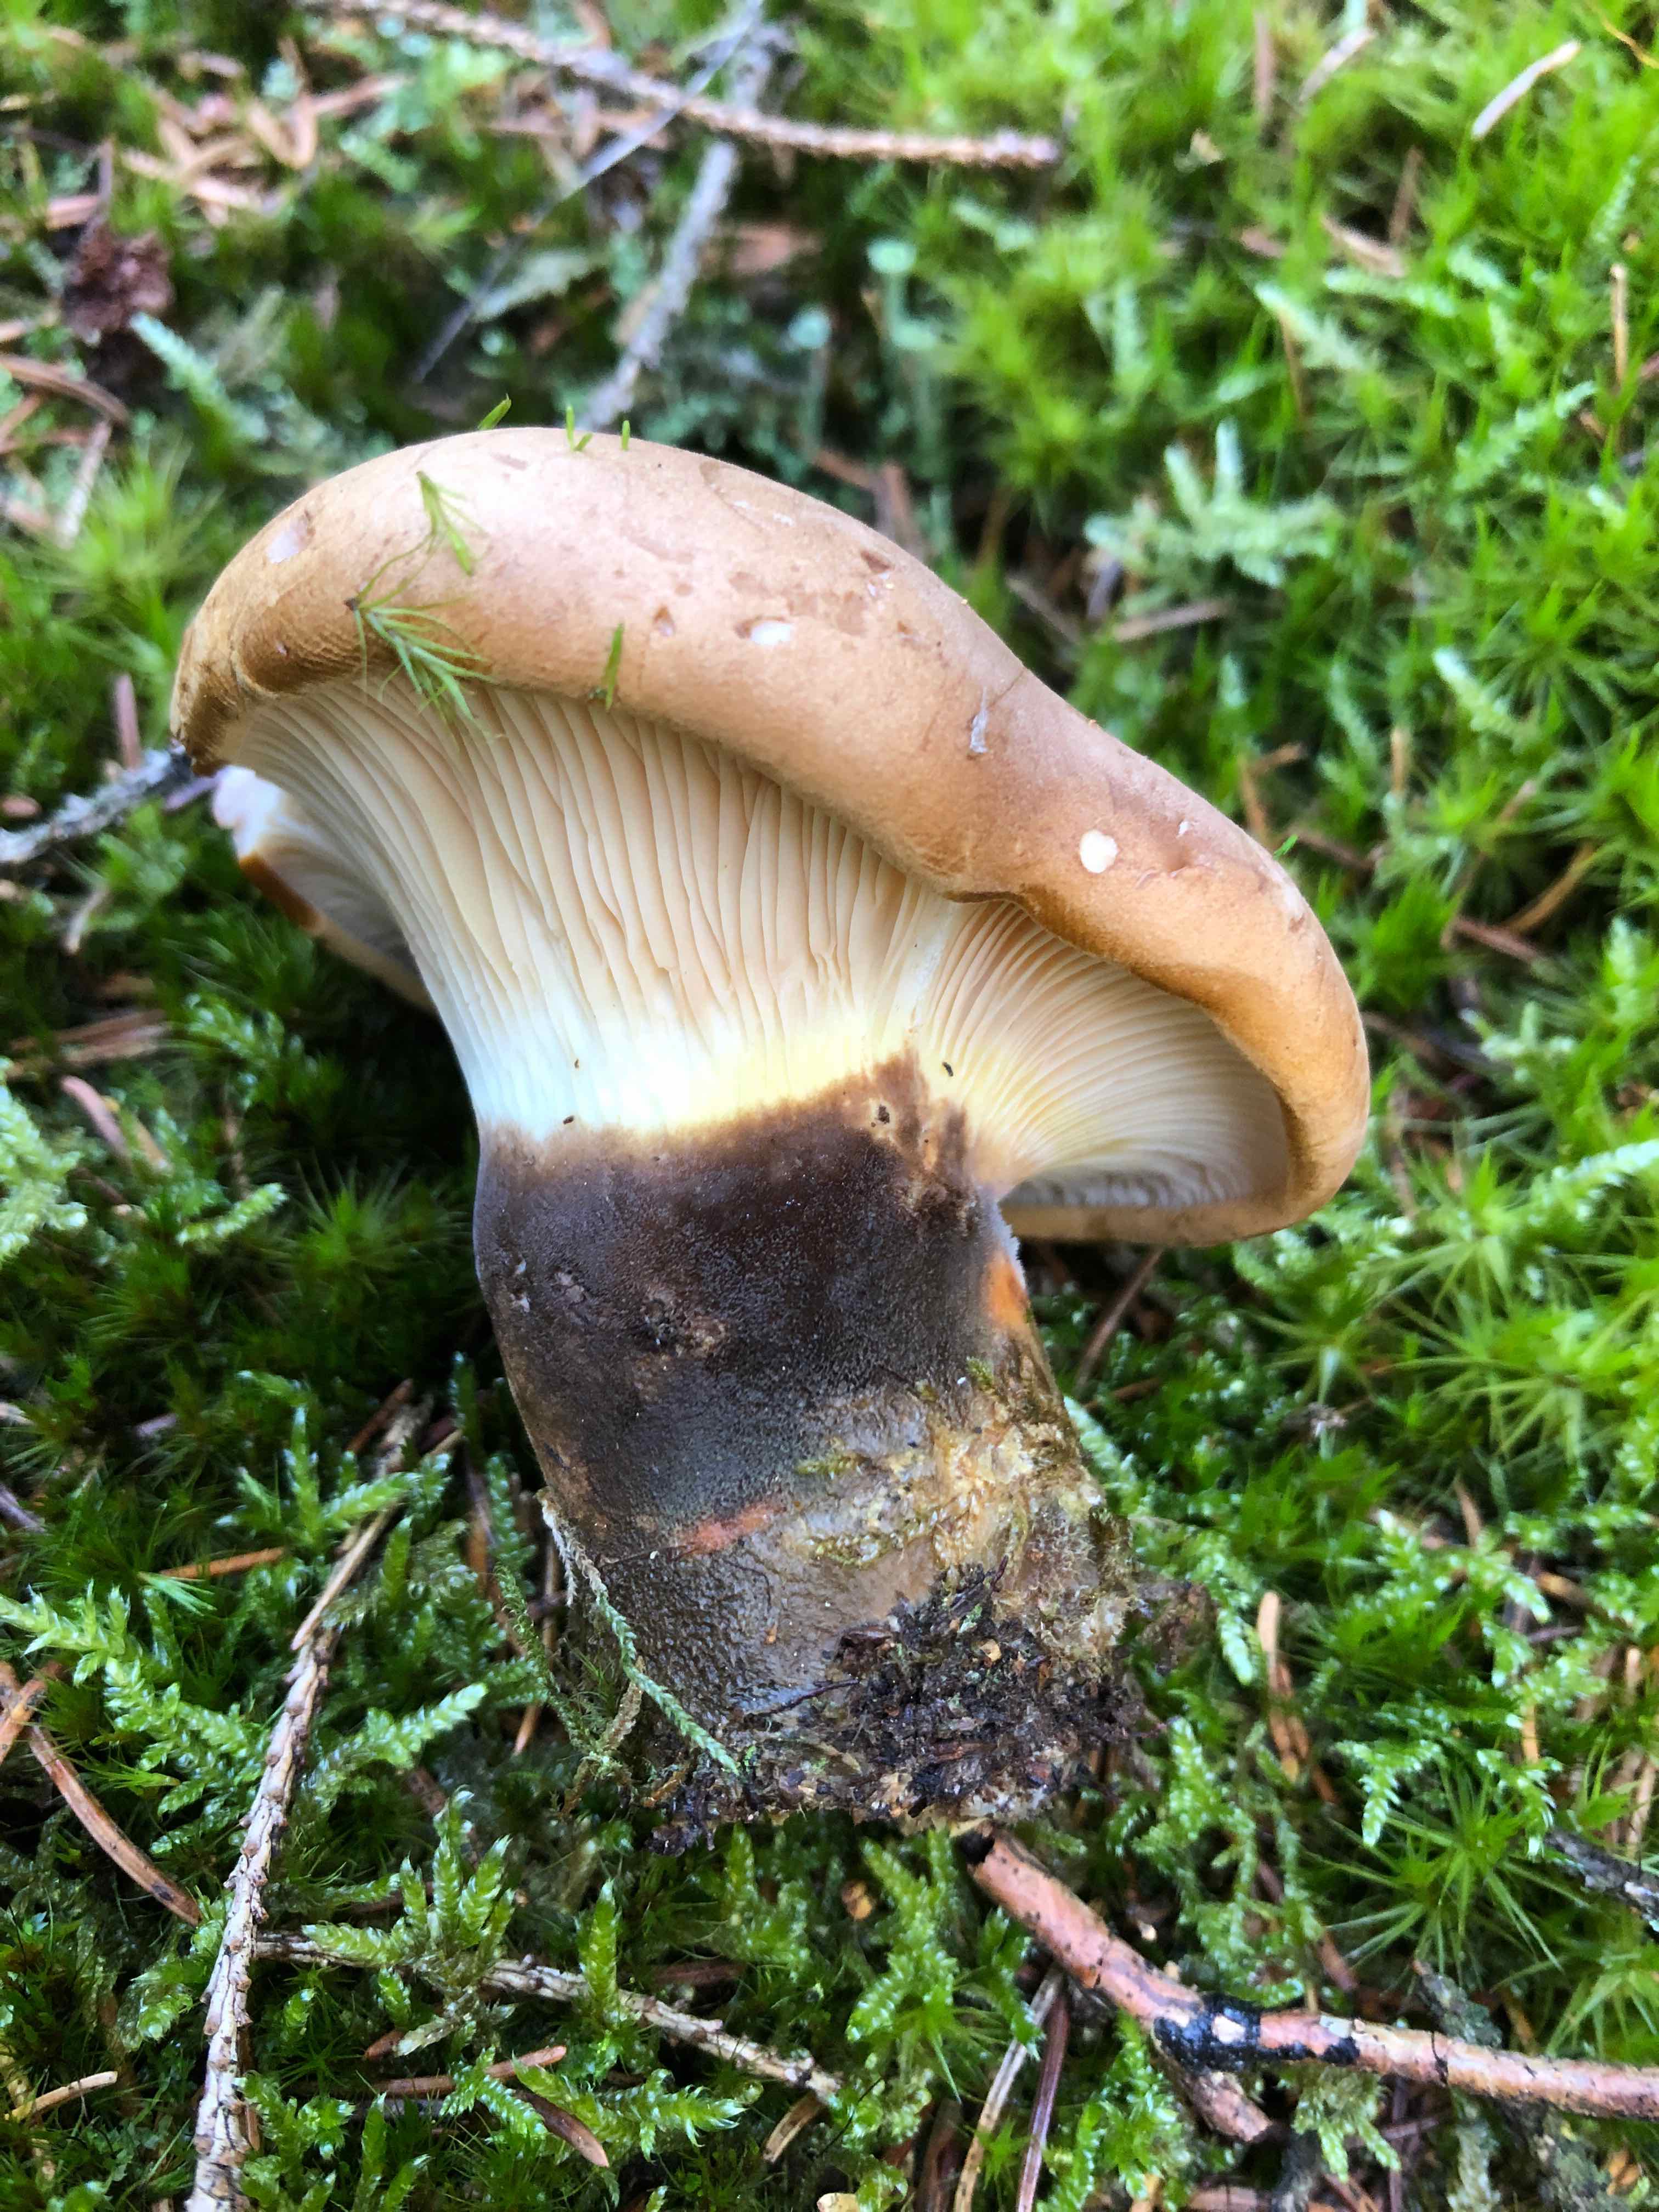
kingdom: Fungi
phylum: Basidiomycota
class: Agaricomycetes
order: Boletales
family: Tapinellaceae
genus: Tapinella
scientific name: Tapinella atrotomentosa
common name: sortfiltet viftesvamp
